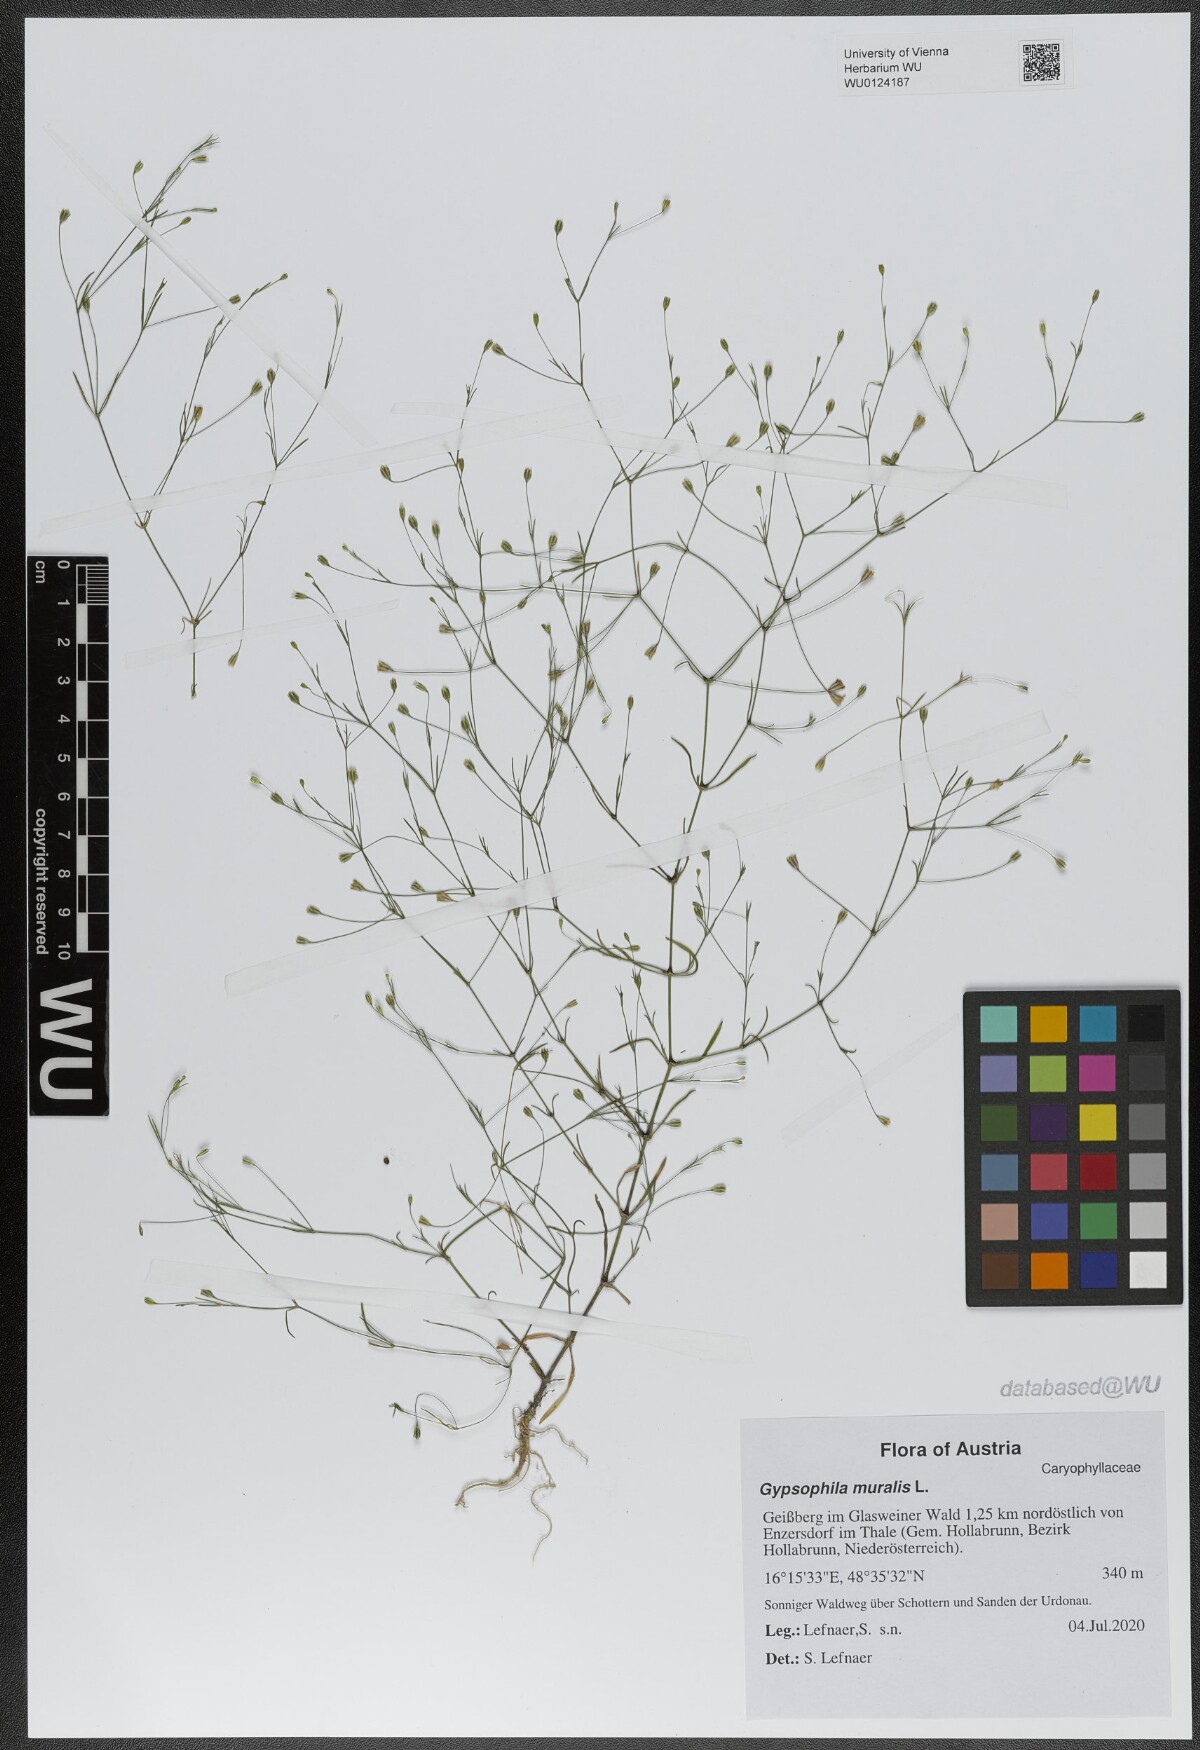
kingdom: Plantae
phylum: Tracheophyta
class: Magnoliopsida
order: Caryophyllales
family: Caryophyllaceae
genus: Psammophiliella
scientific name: Psammophiliella muralis
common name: Cushion baby's-breath
